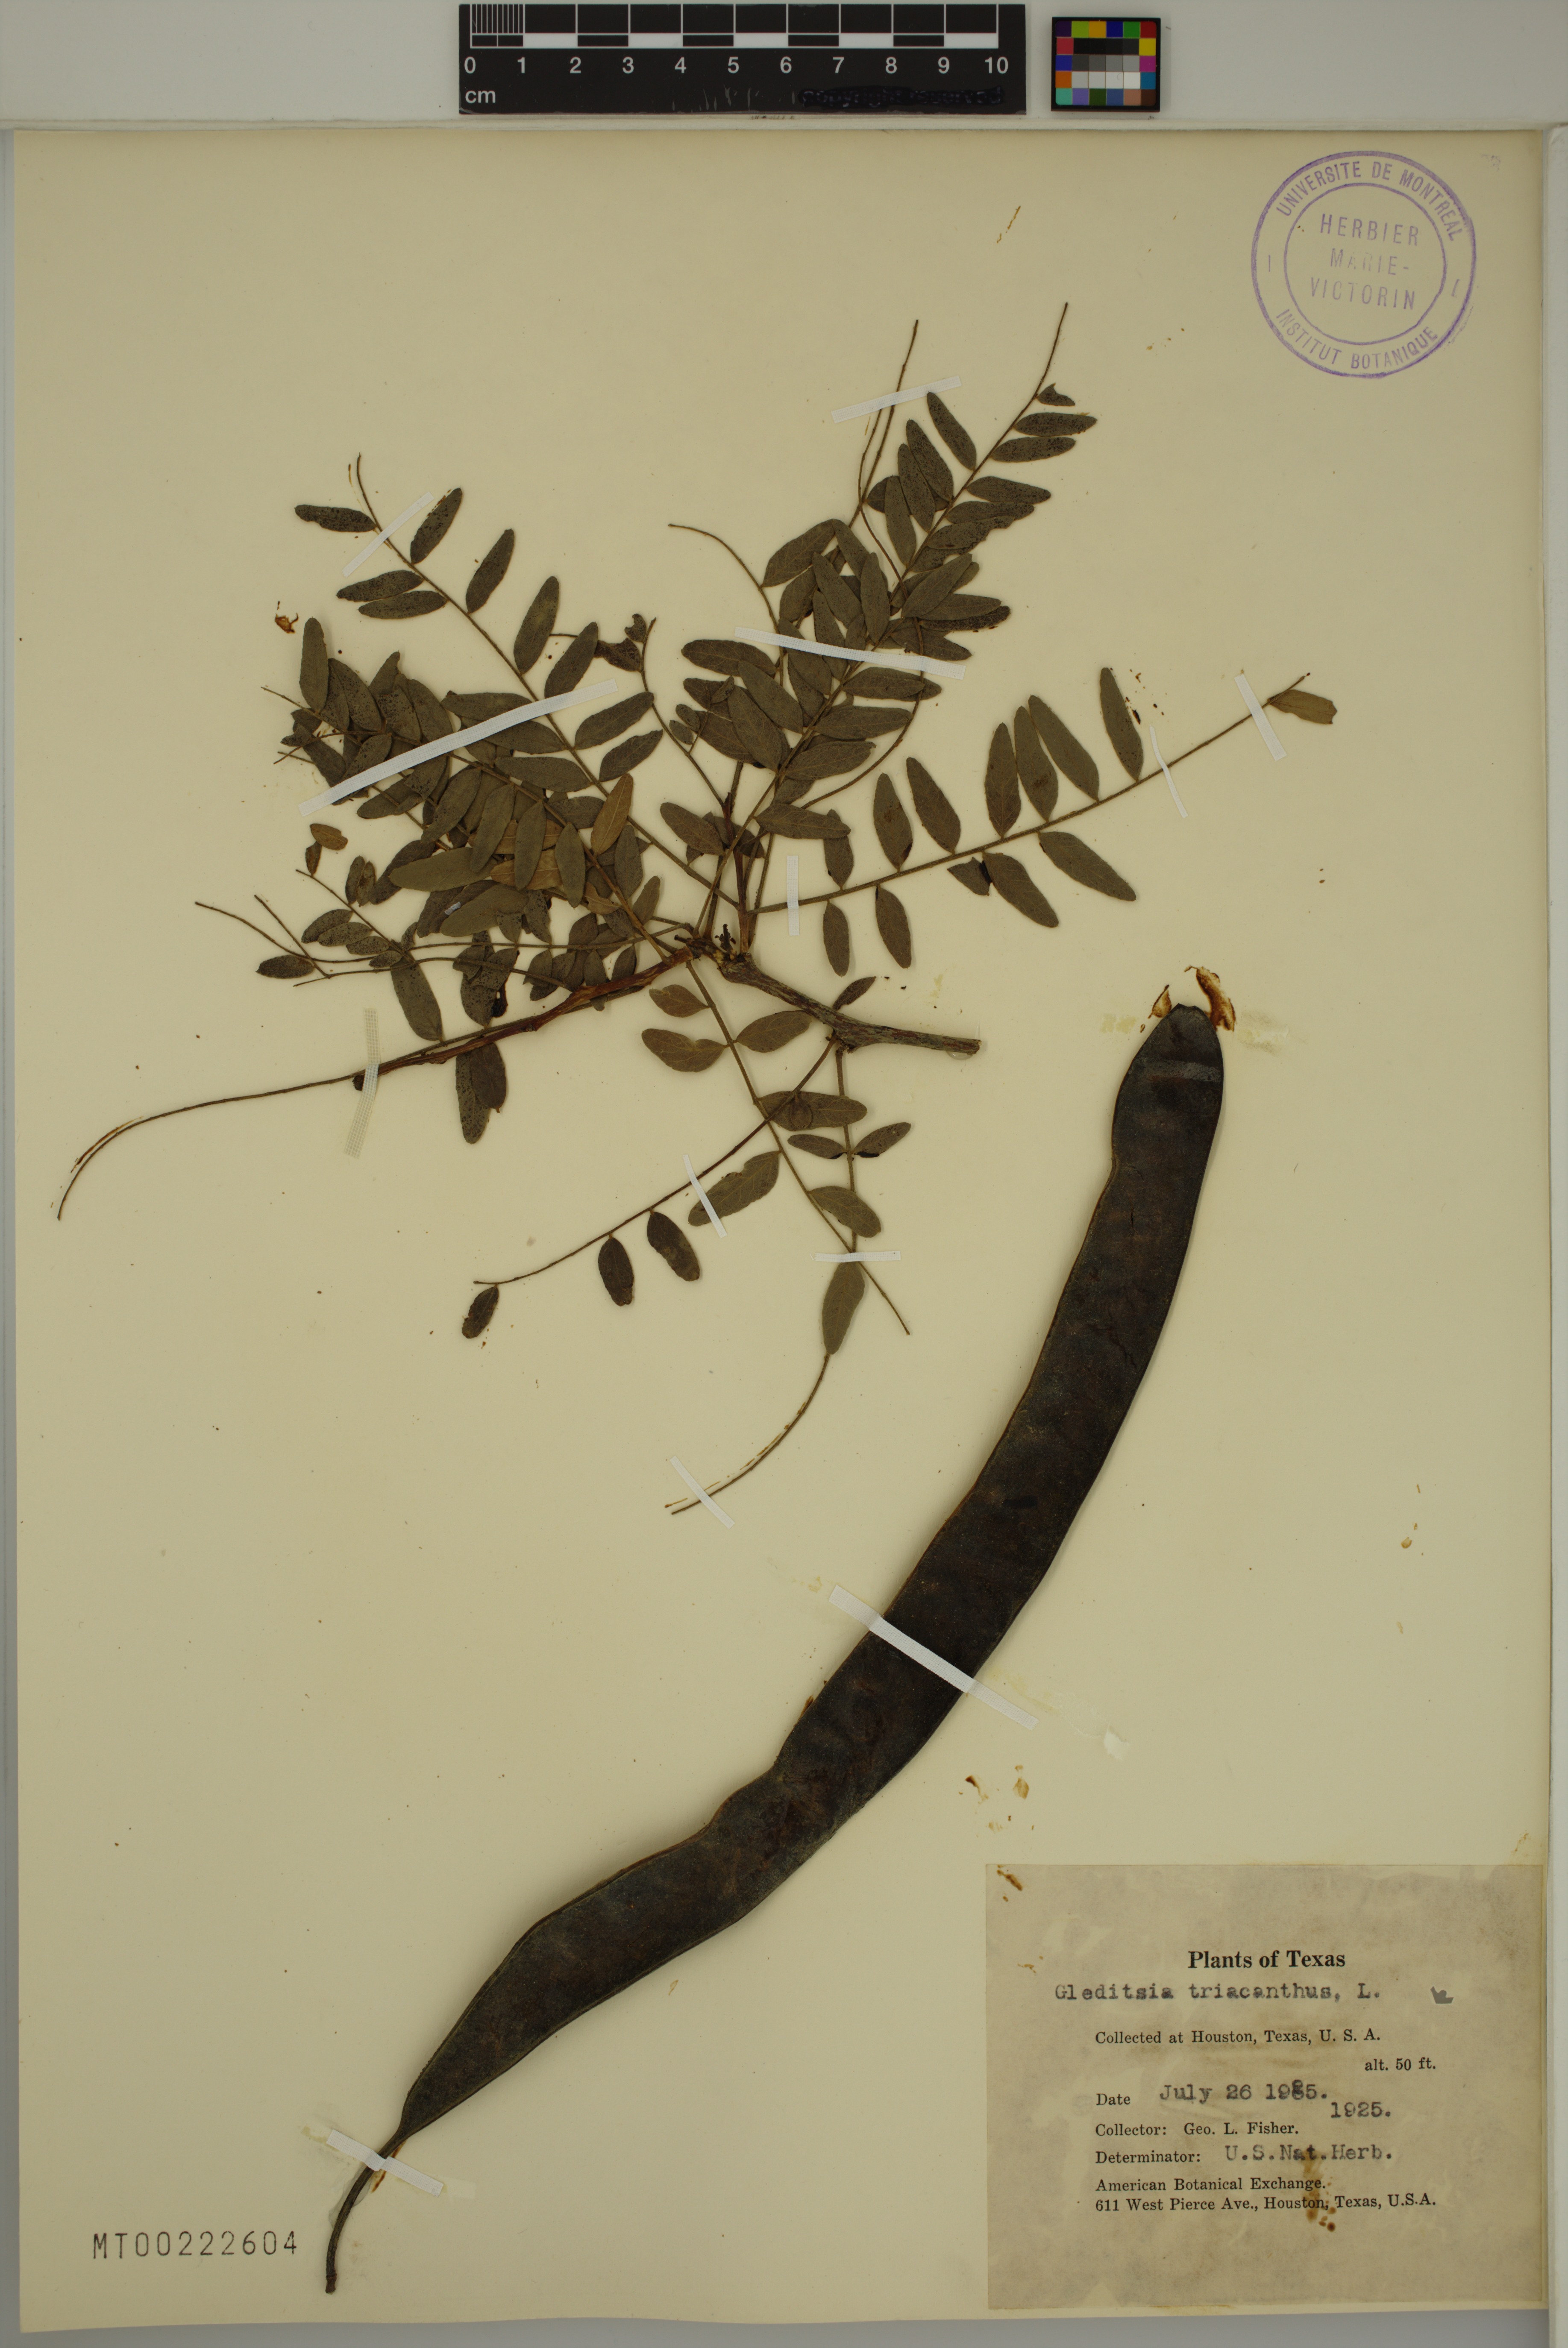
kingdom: Plantae
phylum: Tracheophyta
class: Magnoliopsida
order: Fabales
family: Fabaceae
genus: Gleditsia
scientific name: Gleditsia triacanthos
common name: Common honeylocust
